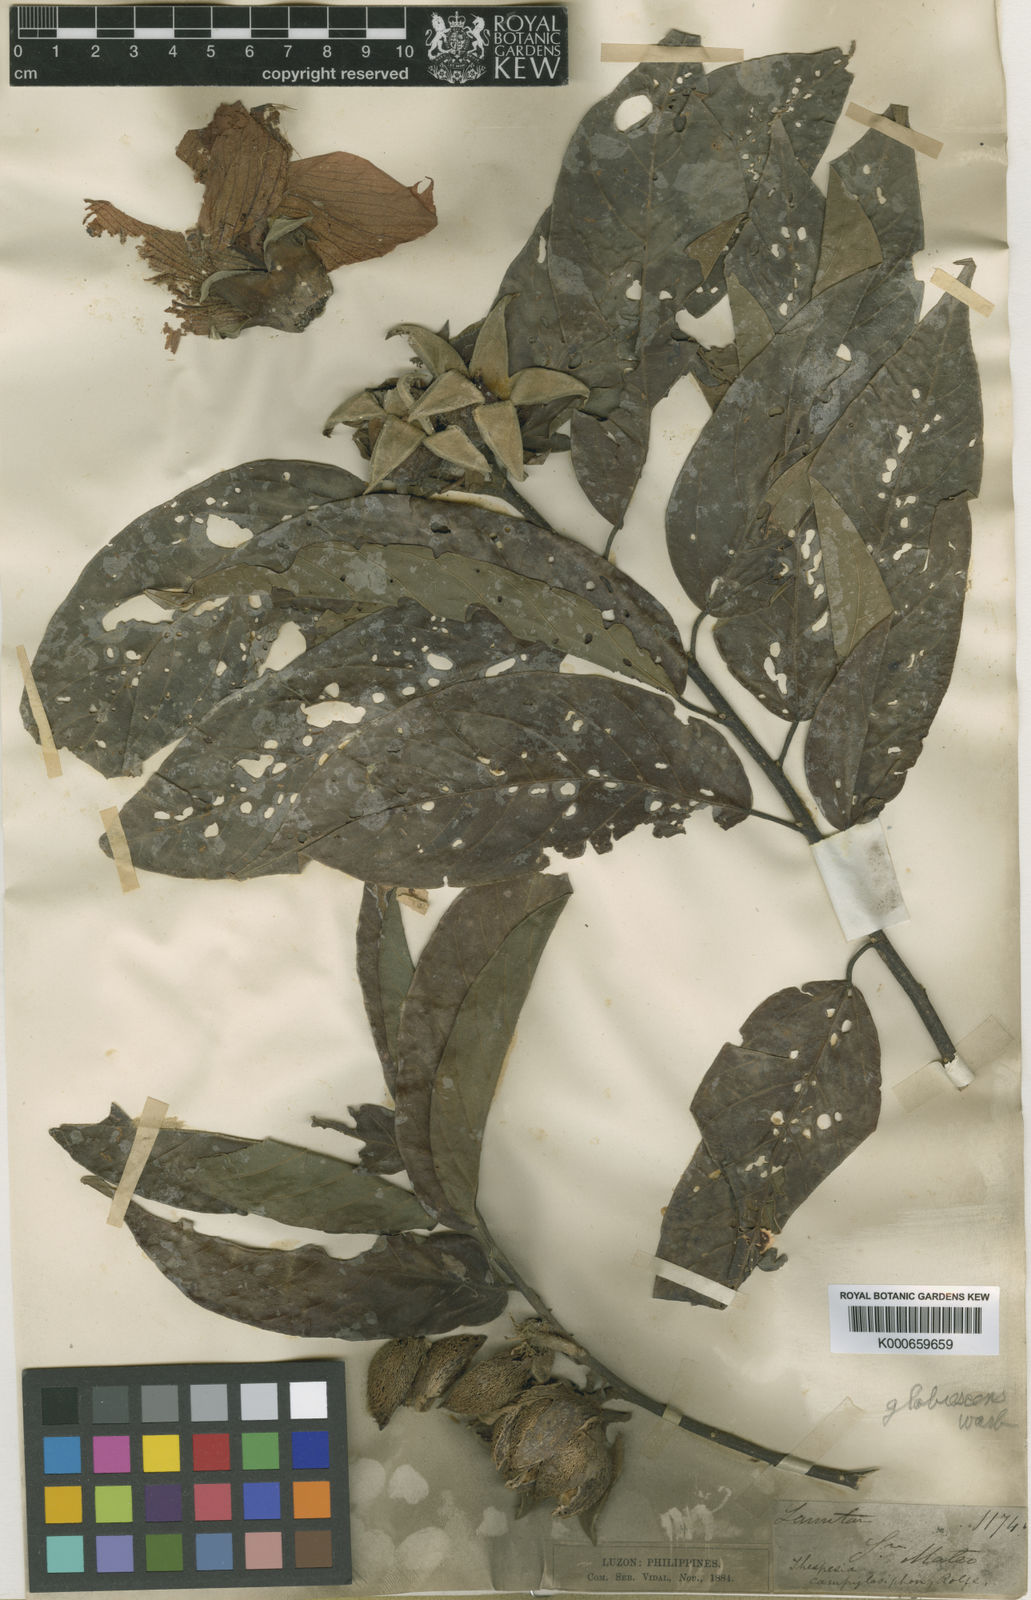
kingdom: Plantae
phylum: Tracheophyta
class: Magnoliopsida
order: Malvales
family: Malvaceae
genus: Bombycidendron
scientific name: Bombycidendron
